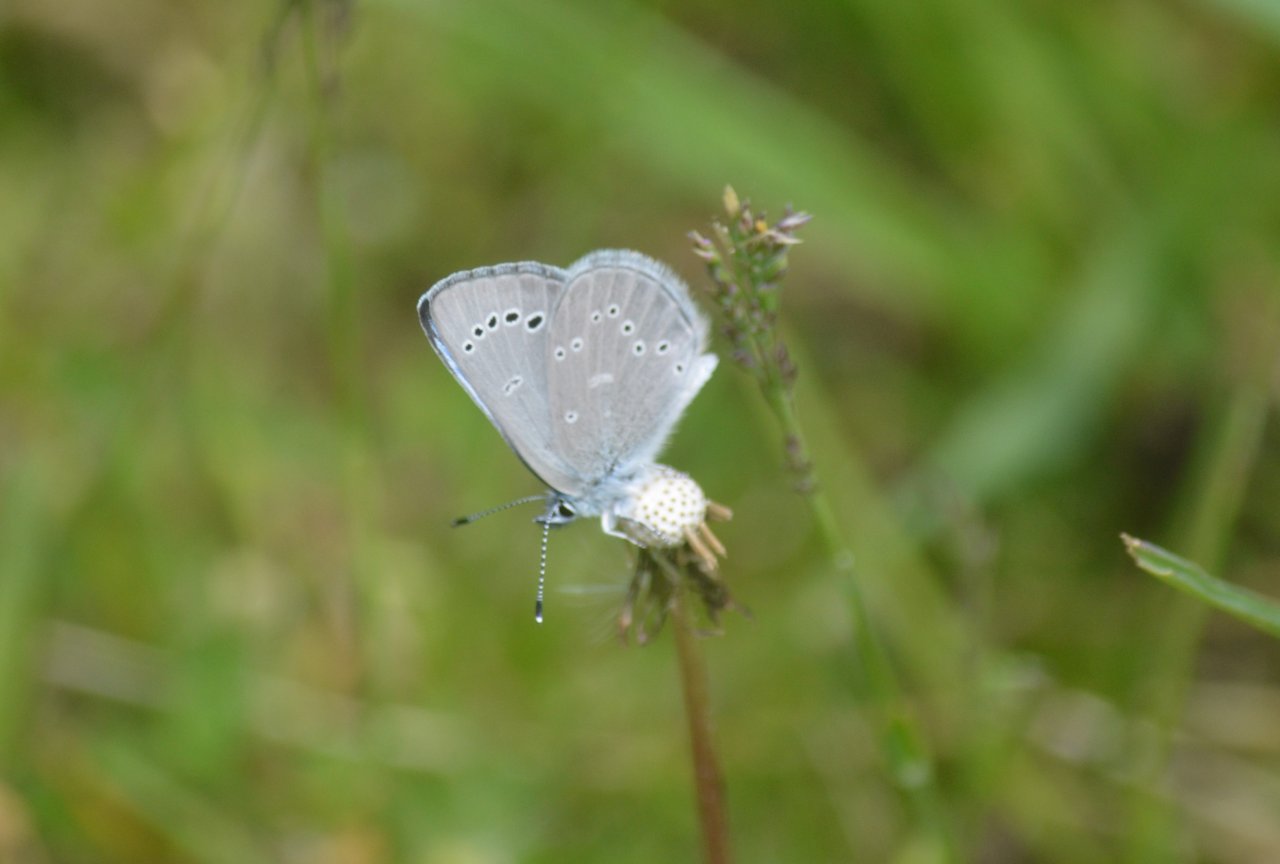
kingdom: Animalia
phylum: Arthropoda
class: Insecta
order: Lepidoptera
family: Lycaenidae
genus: Glaucopsyche
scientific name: Glaucopsyche lygdamus
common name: Silvery Blue
